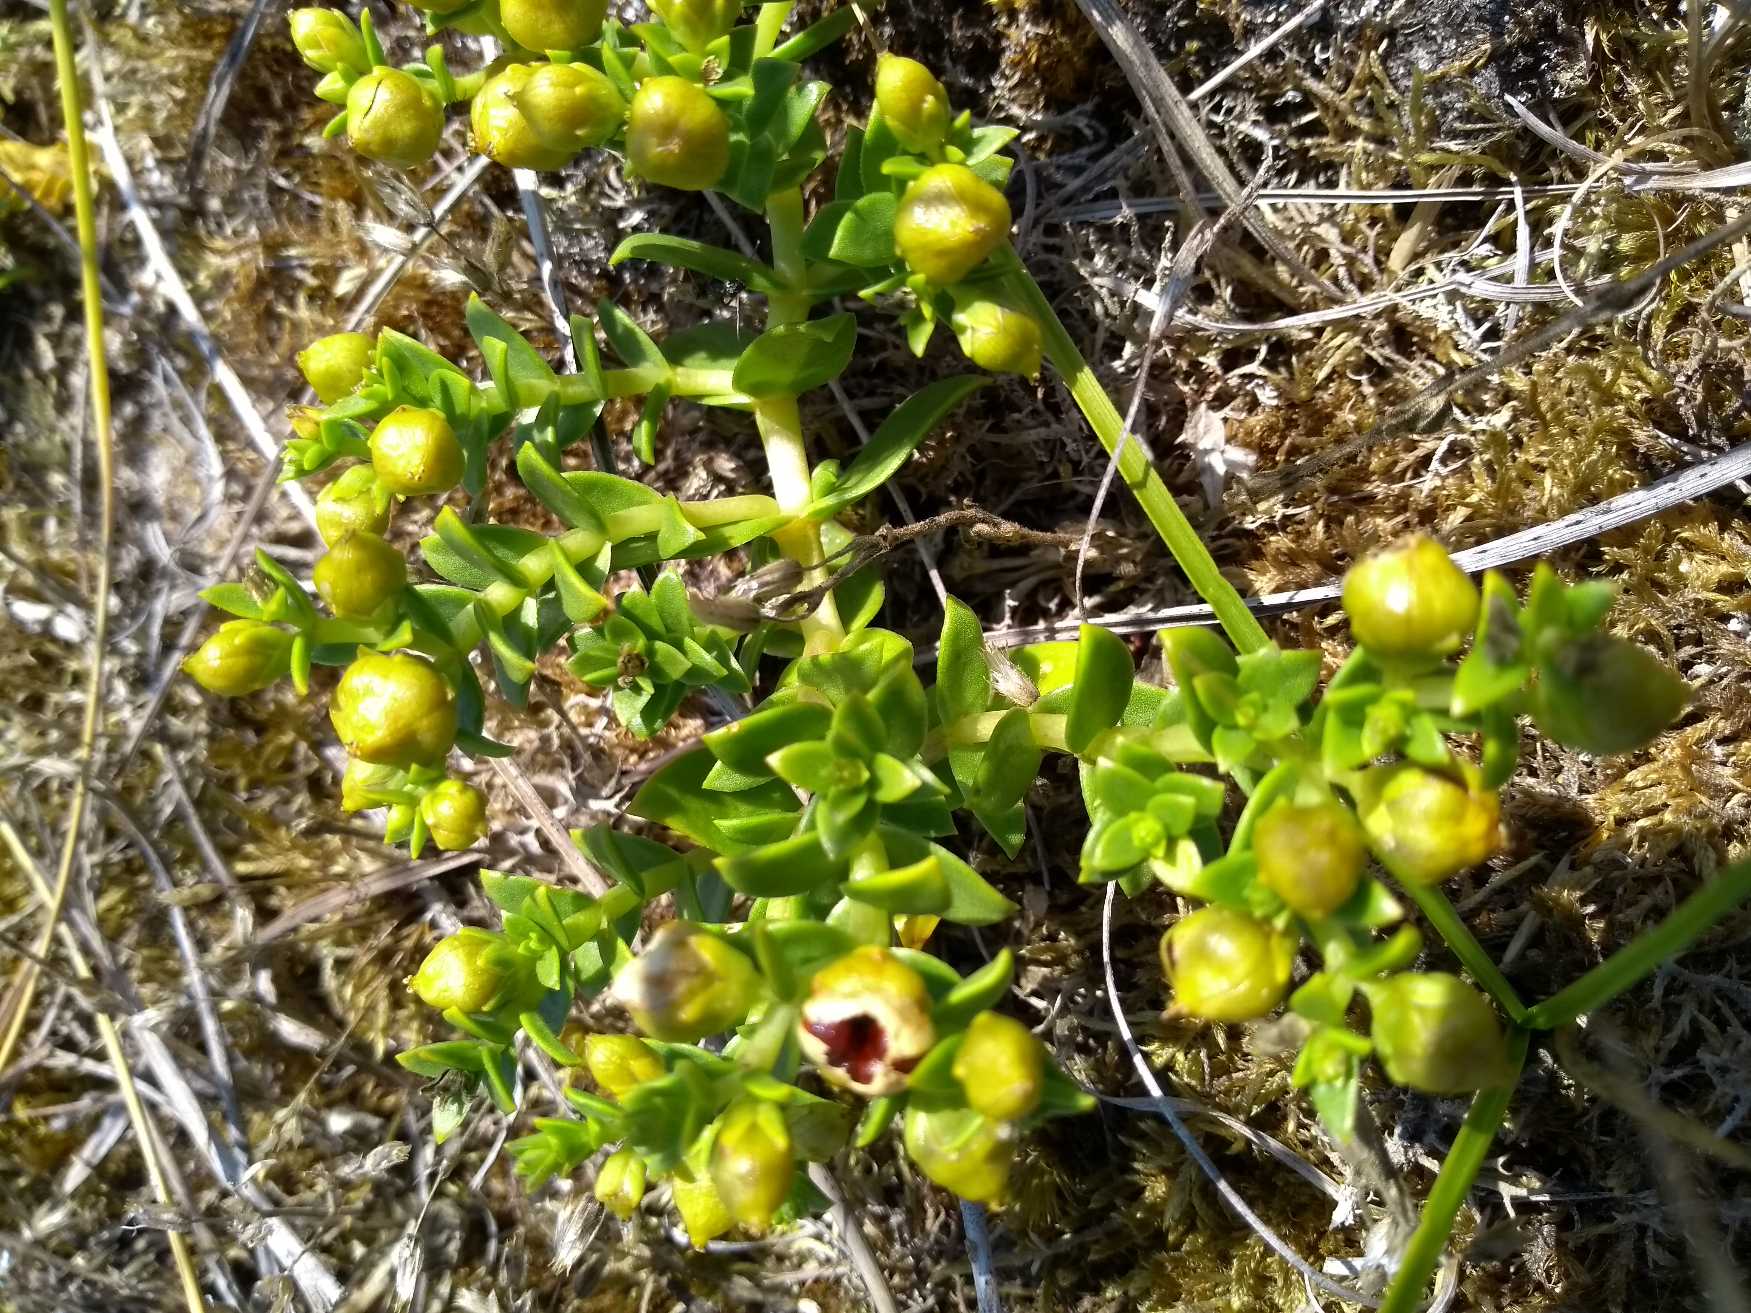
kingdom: Plantae
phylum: Tracheophyta
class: Magnoliopsida
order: Caryophyllales
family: Caryophyllaceae
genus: Honckenya
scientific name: Honckenya peploides
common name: Strandarve
